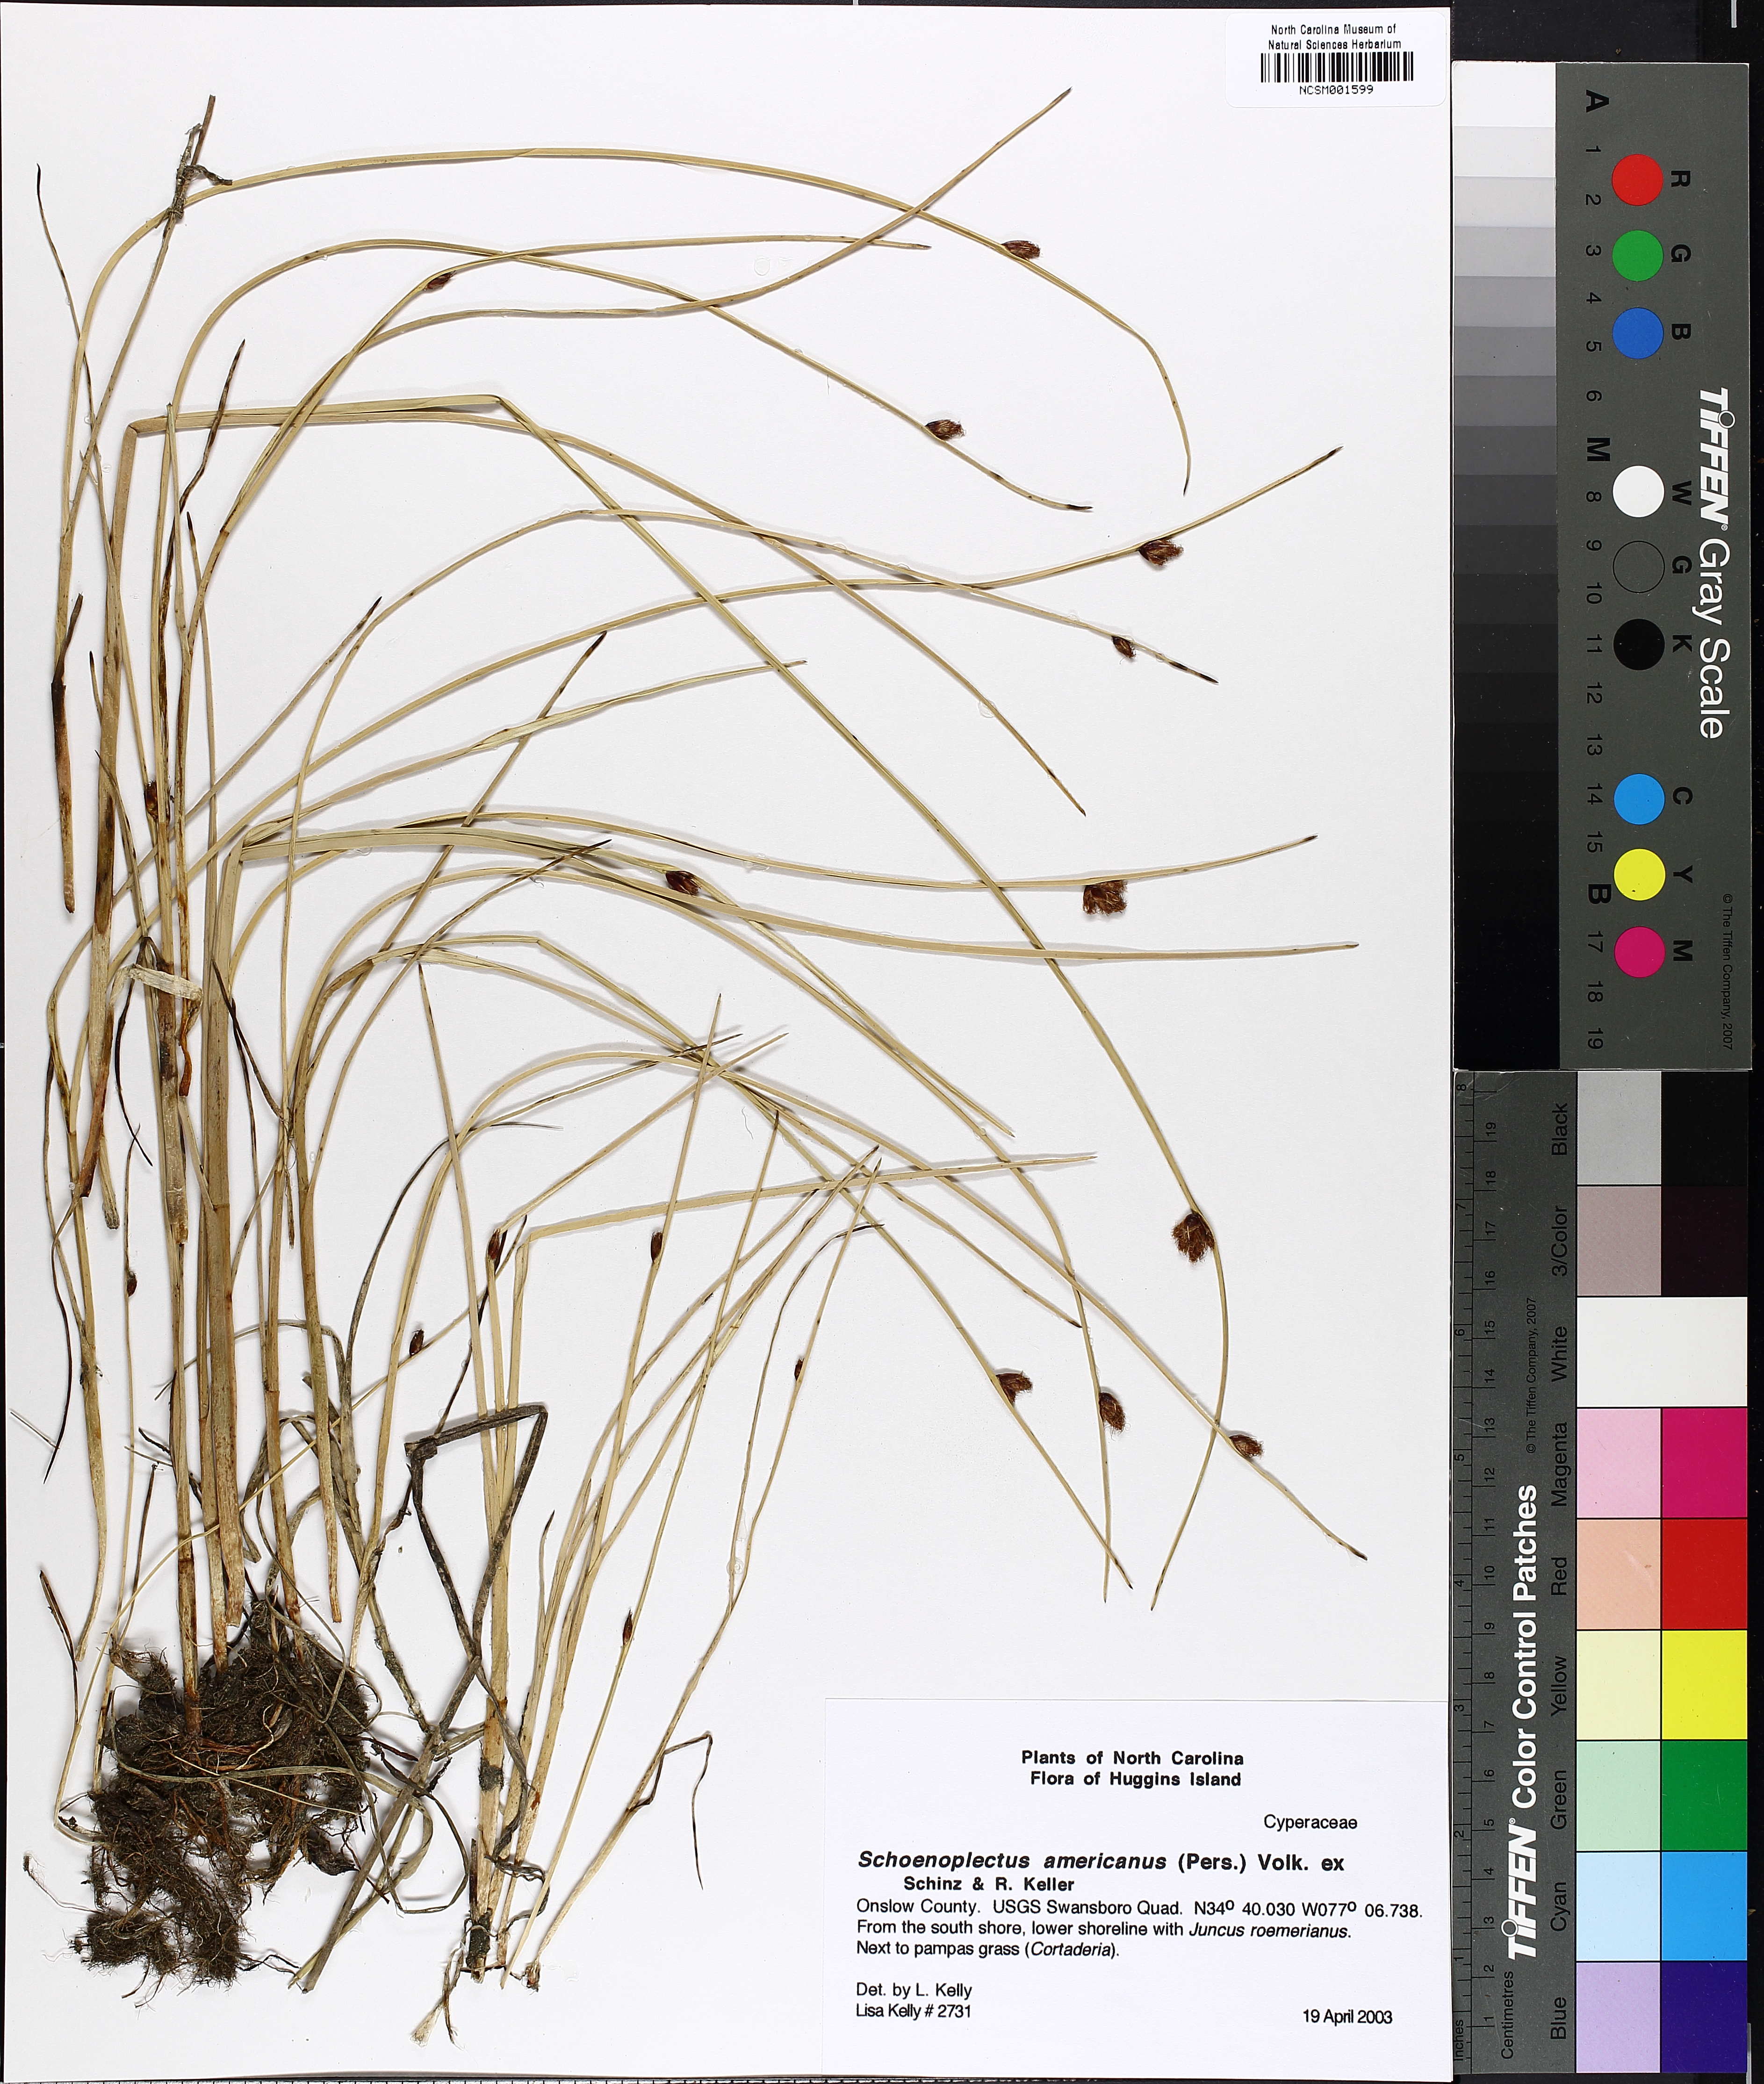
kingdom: Plantae
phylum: Tracheophyta
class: Liliopsida
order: Poales
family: Cyperaceae
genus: Schoenoplectus
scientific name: Schoenoplectus americanus
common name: American three-square bulrush
